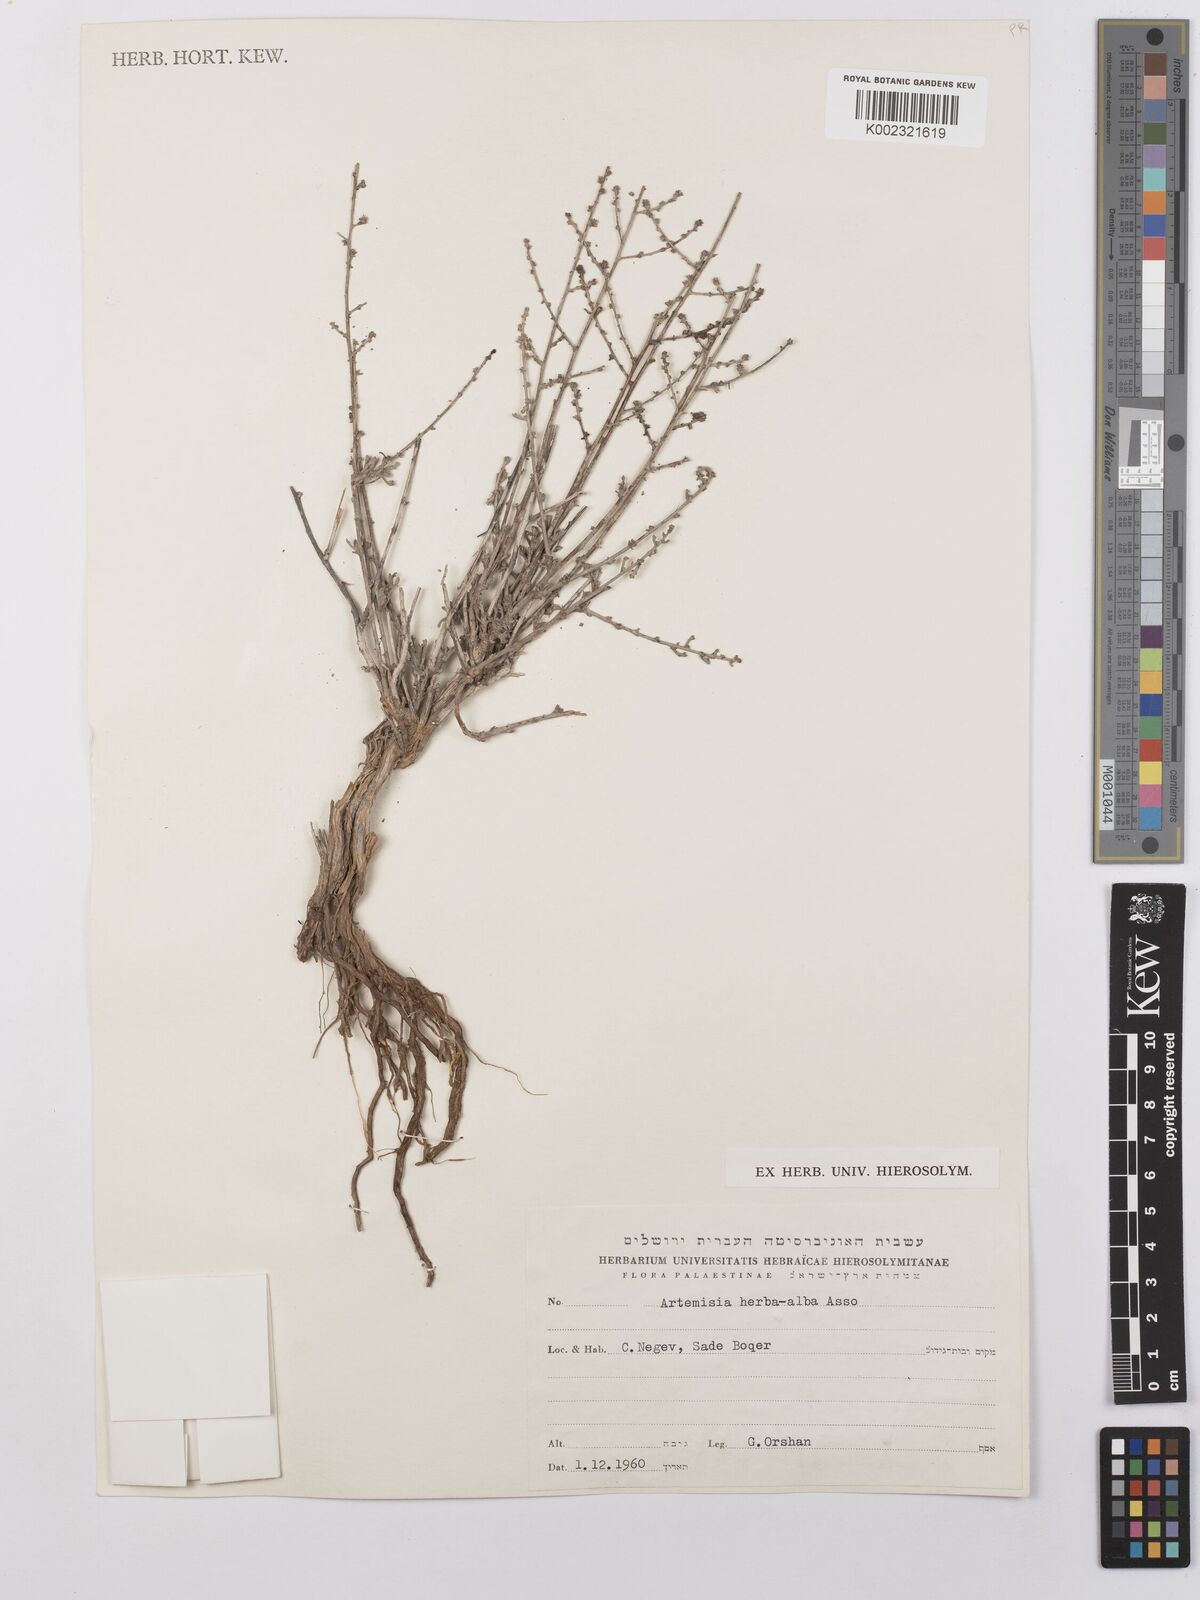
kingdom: Plantae
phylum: Tracheophyta
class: Magnoliopsida
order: Asterales
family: Asteraceae
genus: Artemisia
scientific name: Artemisia herba-alba
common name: White wormwood
